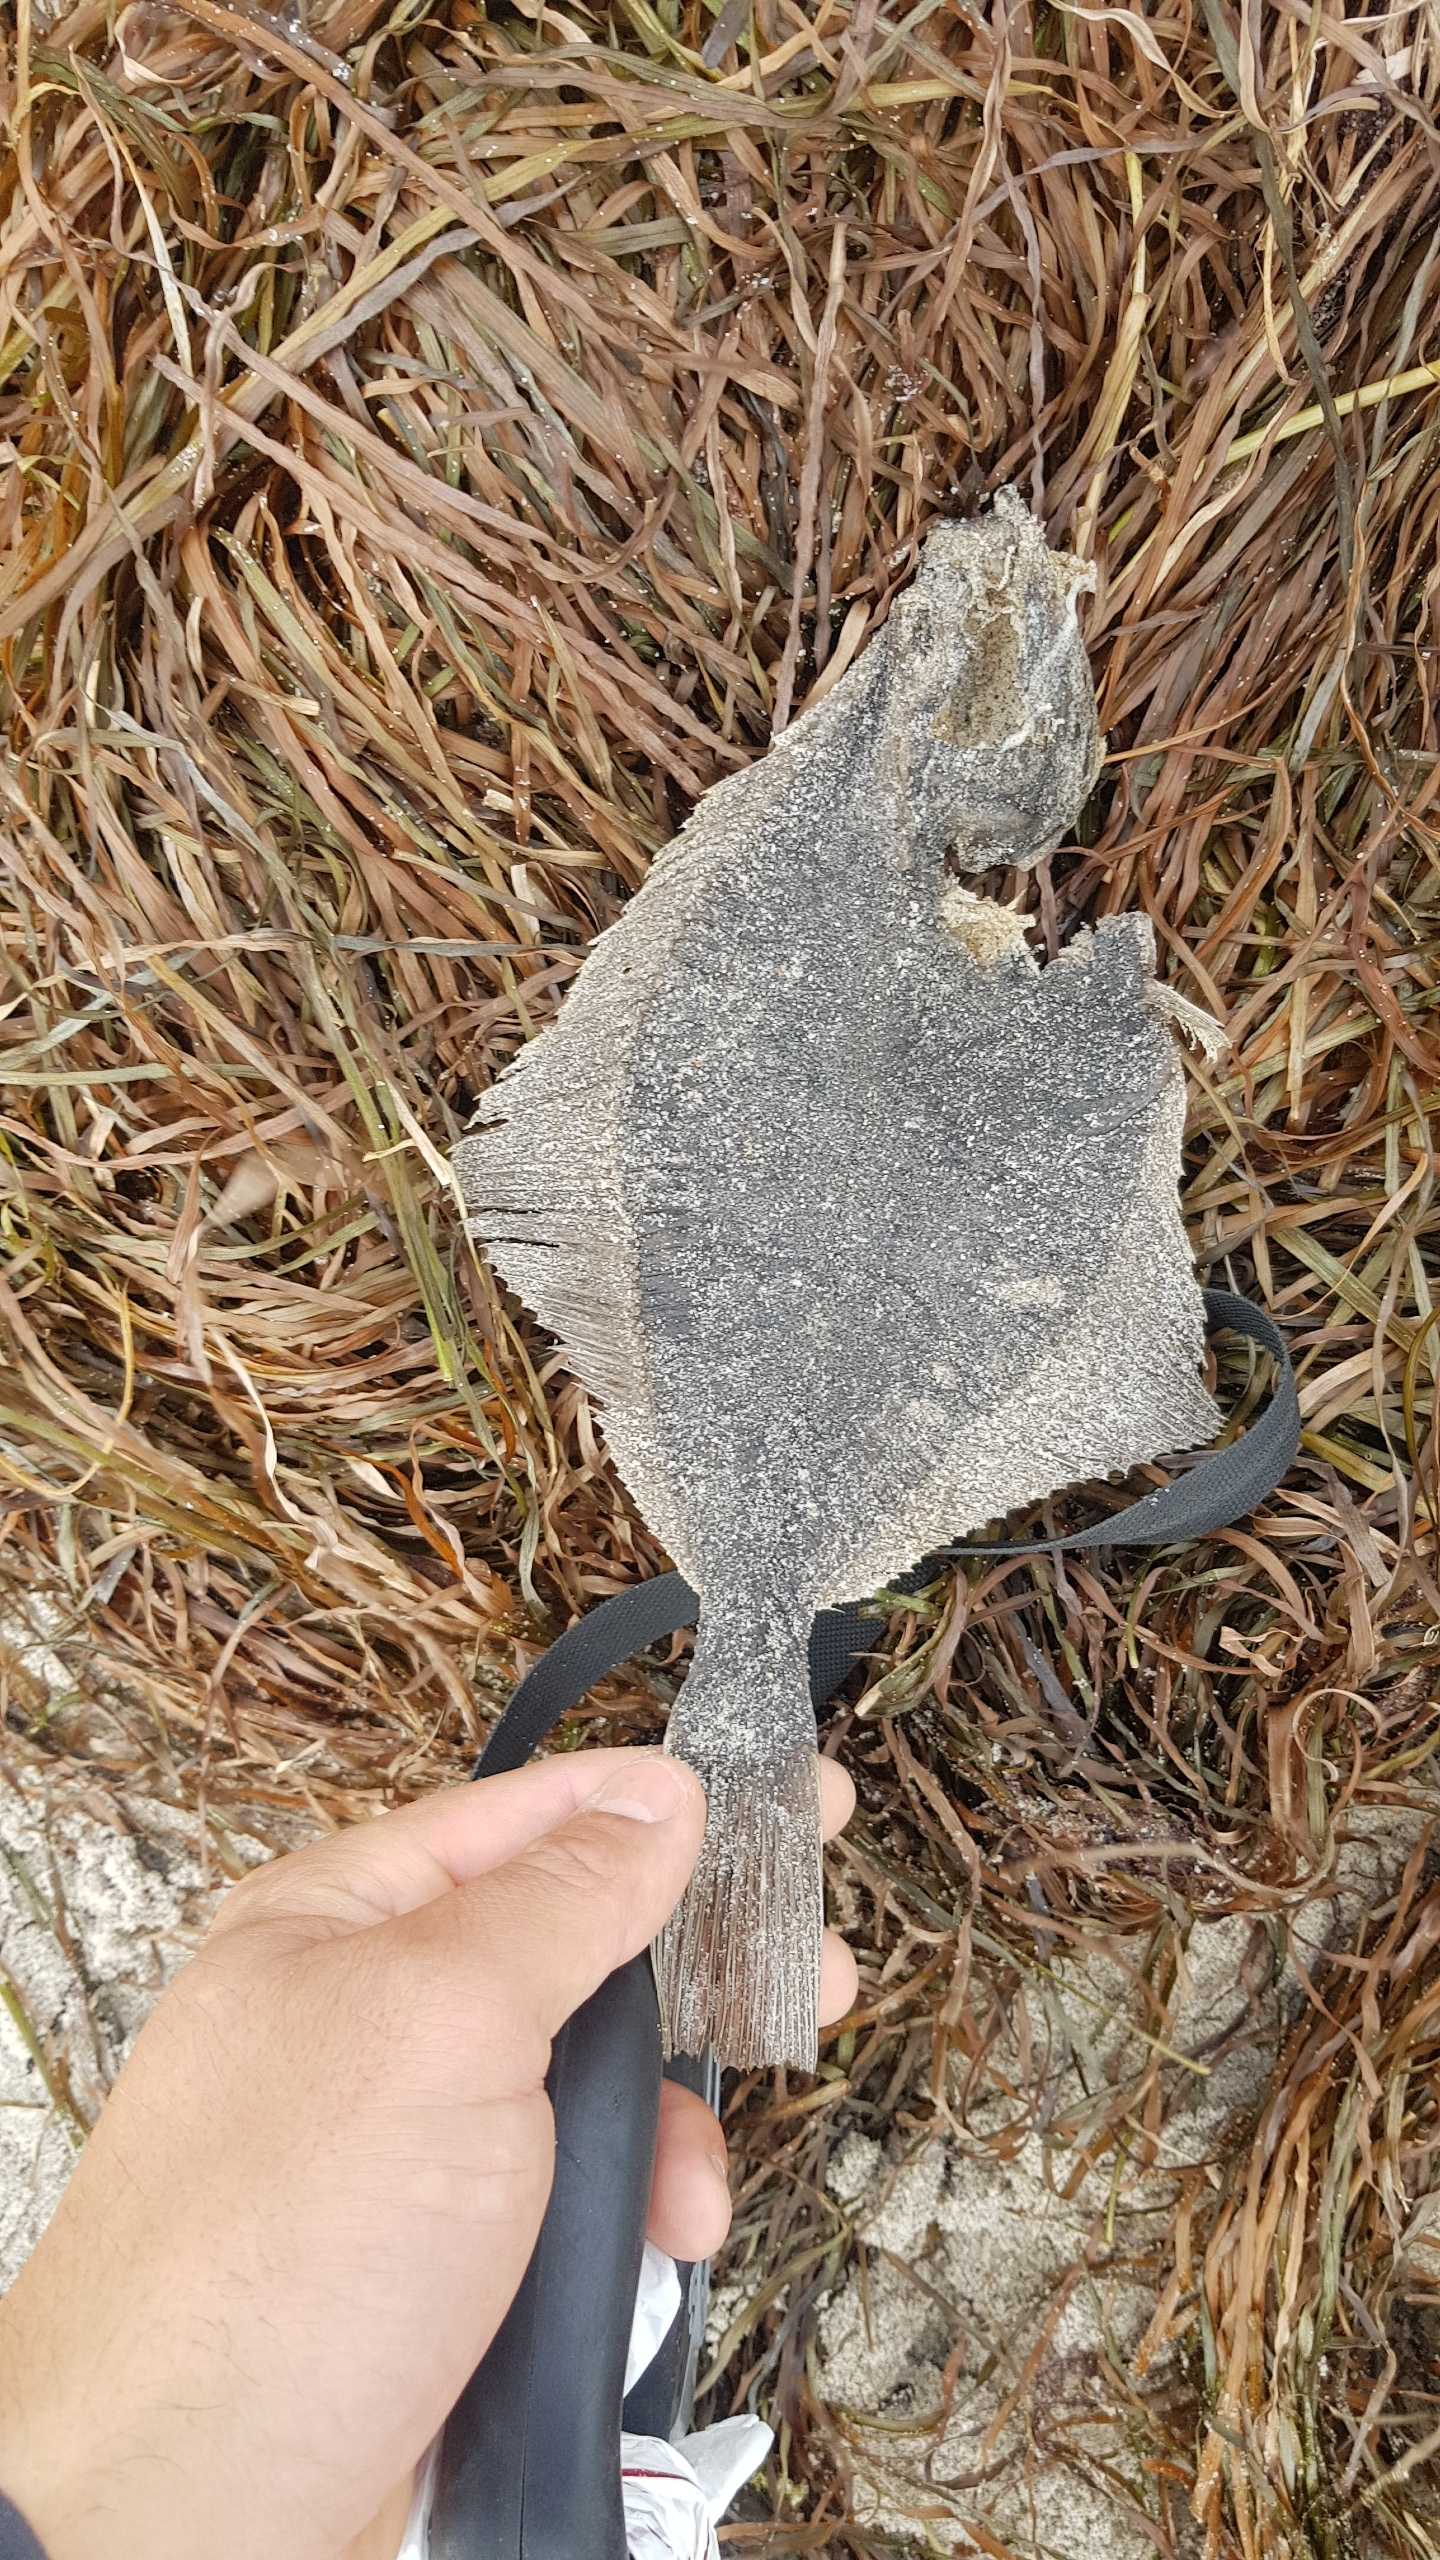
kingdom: Animalia
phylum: Chordata
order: Pleuronectiformes
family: Pleuronectidae
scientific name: Pleuronectidae
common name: Rødspættefamilien
